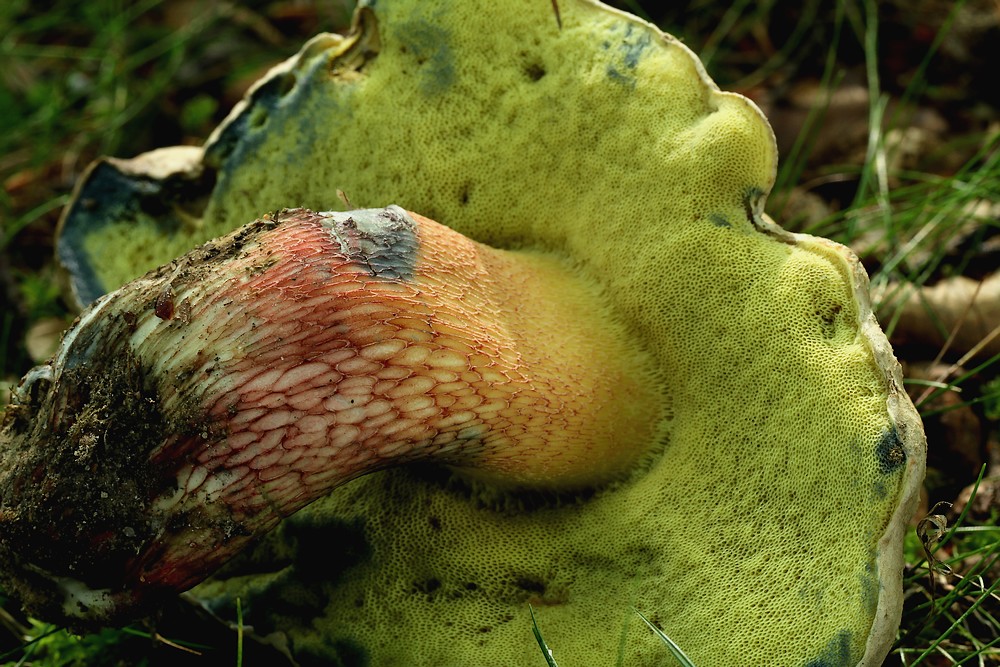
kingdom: Fungi
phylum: Basidiomycota
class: Agaricomycetes
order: Boletales
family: Boletaceae
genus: Caloboletus
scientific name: Caloboletus calopus
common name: skønfodet rørhat
